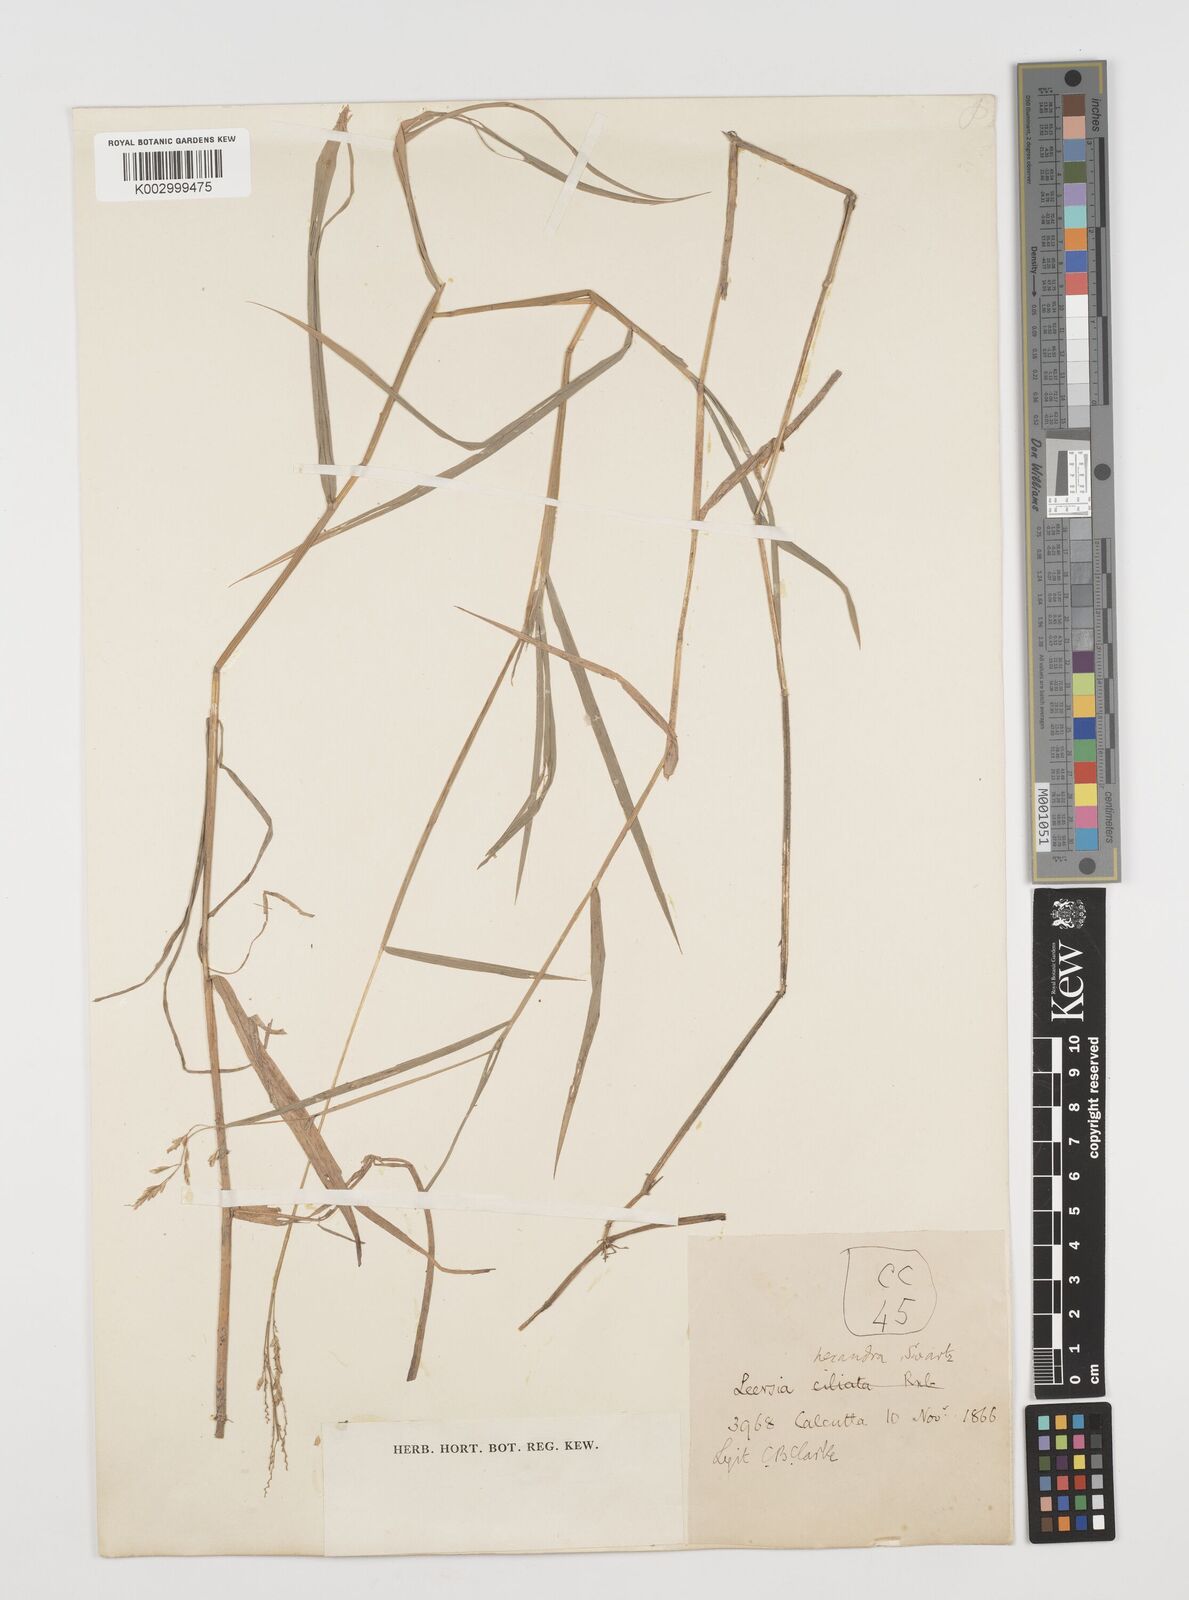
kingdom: Plantae
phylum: Tracheophyta
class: Liliopsida
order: Poales
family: Poaceae
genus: Leersia
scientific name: Leersia hexandra
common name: Southern cut grass
